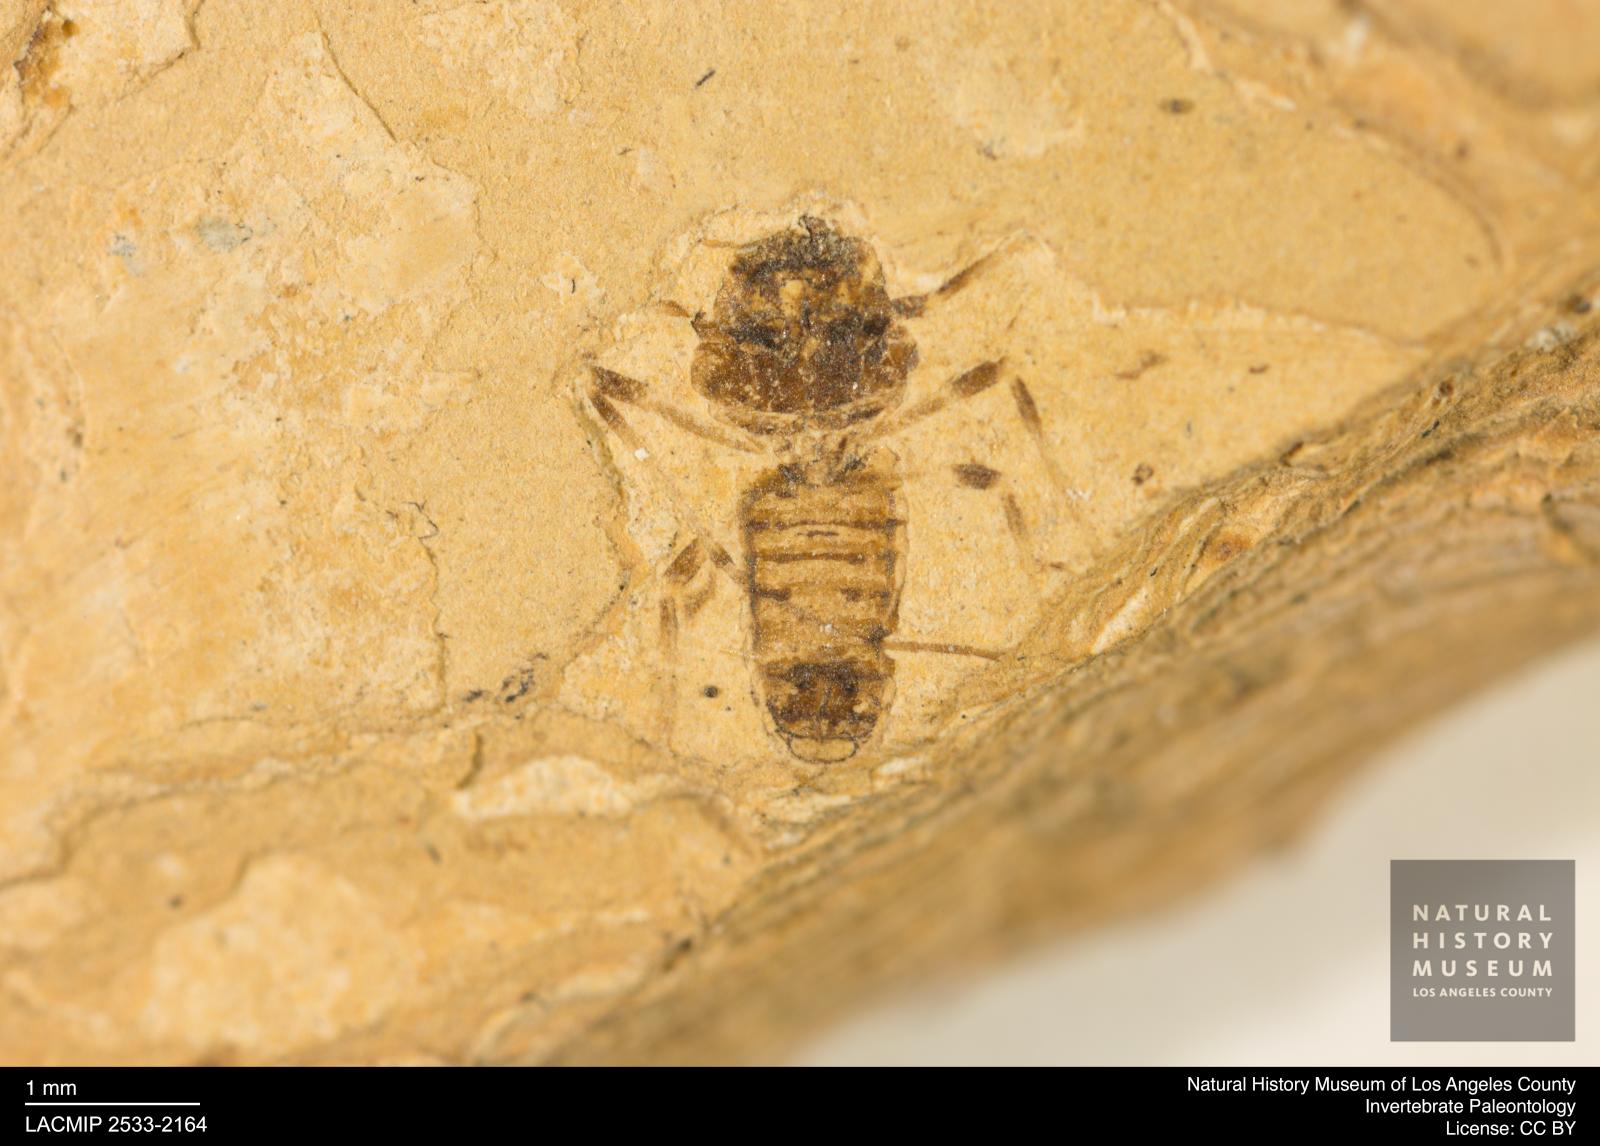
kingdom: Animalia
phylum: Arthropoda
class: Insecta
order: Diptera
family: Chironomidae
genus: Tanypus
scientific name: Tanypus dorminans
